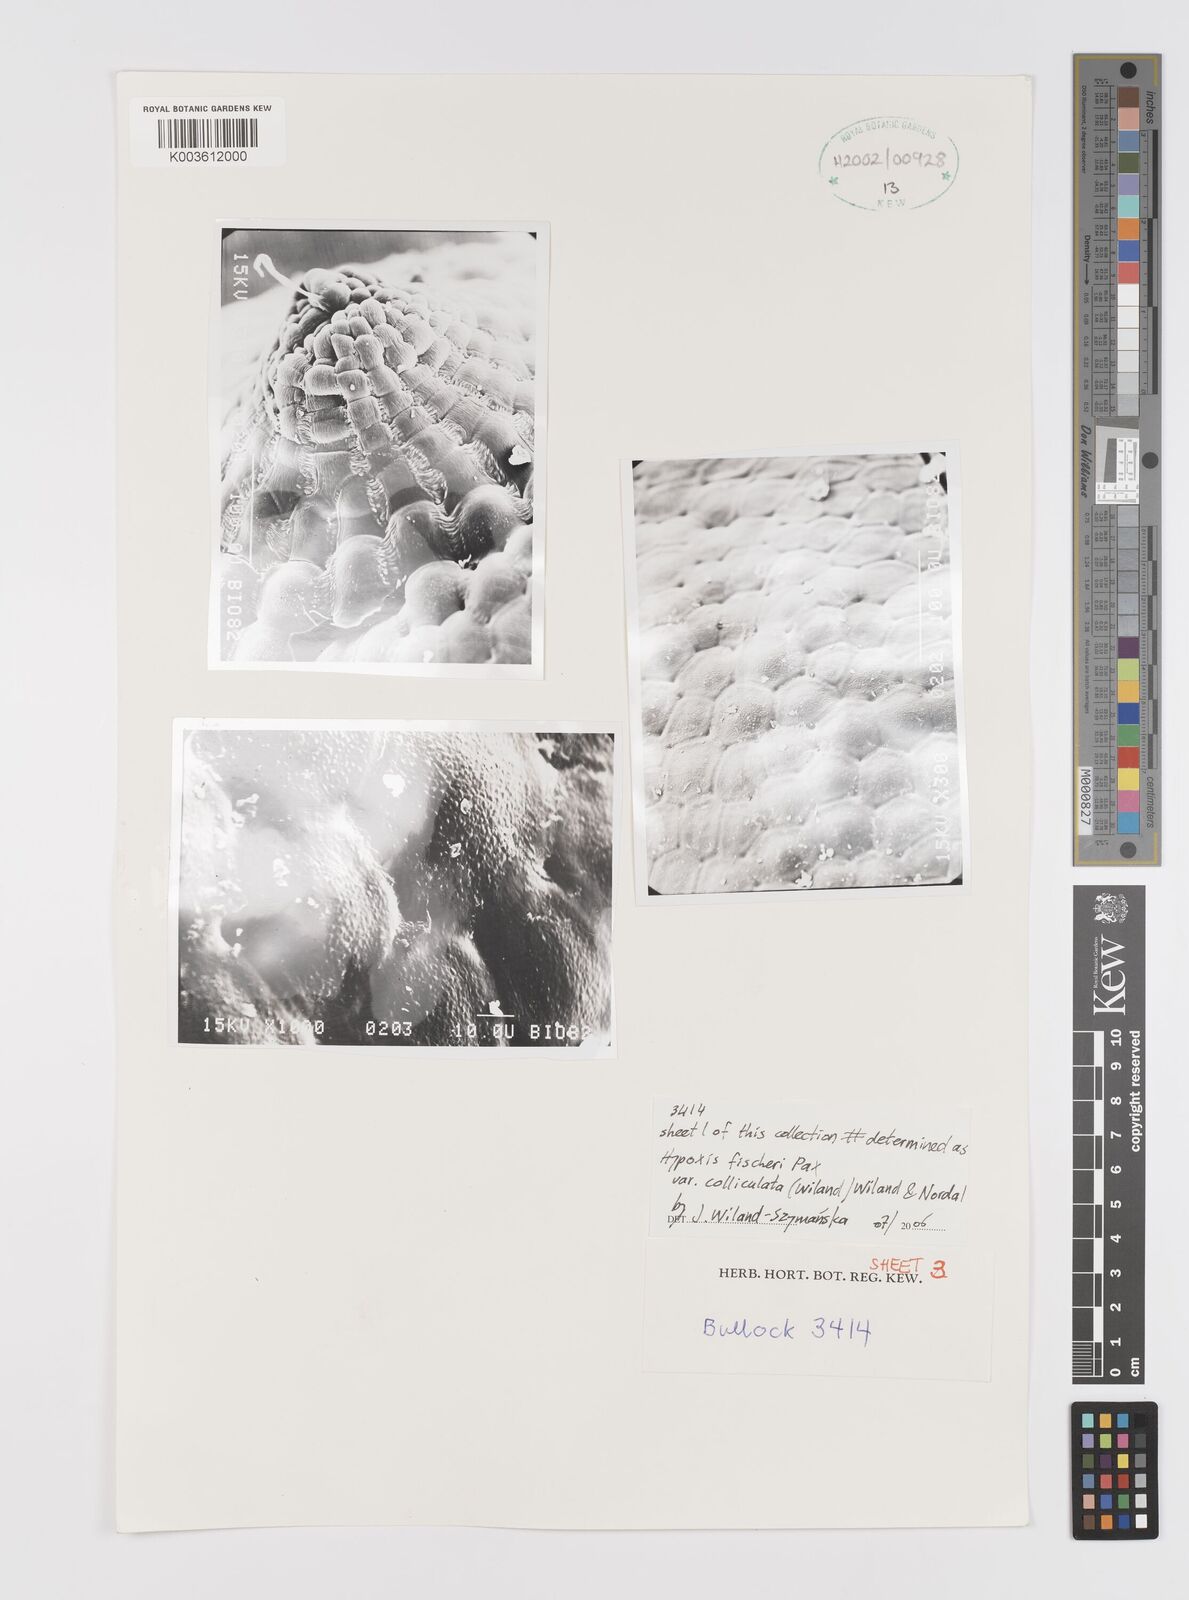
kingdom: Plantae
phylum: Tracheophyta
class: Liliopsida
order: Asparagales
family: Hypoxidaceae
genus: Hypoxis
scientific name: Hypoxis fischeri
